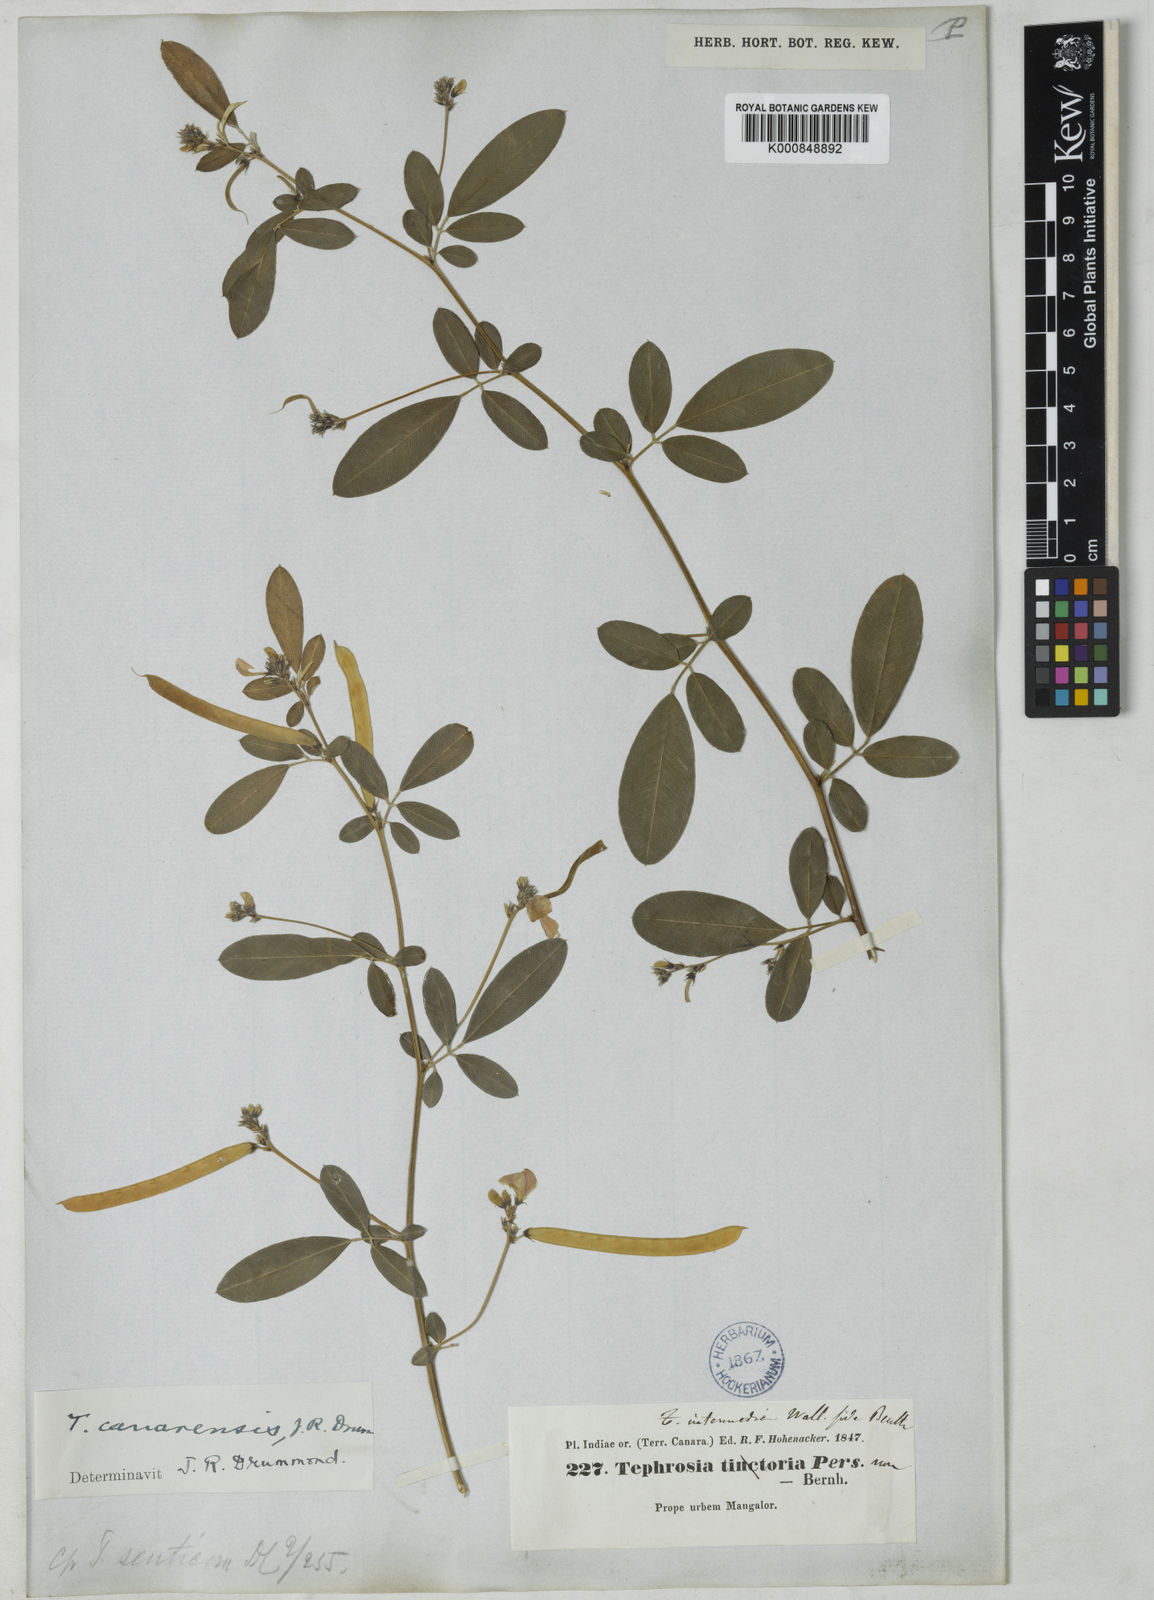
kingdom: Plantae
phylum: Tracheophyta
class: Magnoliopsida
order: Fabales
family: Fabaceae
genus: Tephrosia
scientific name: Tephrosia canarensis
